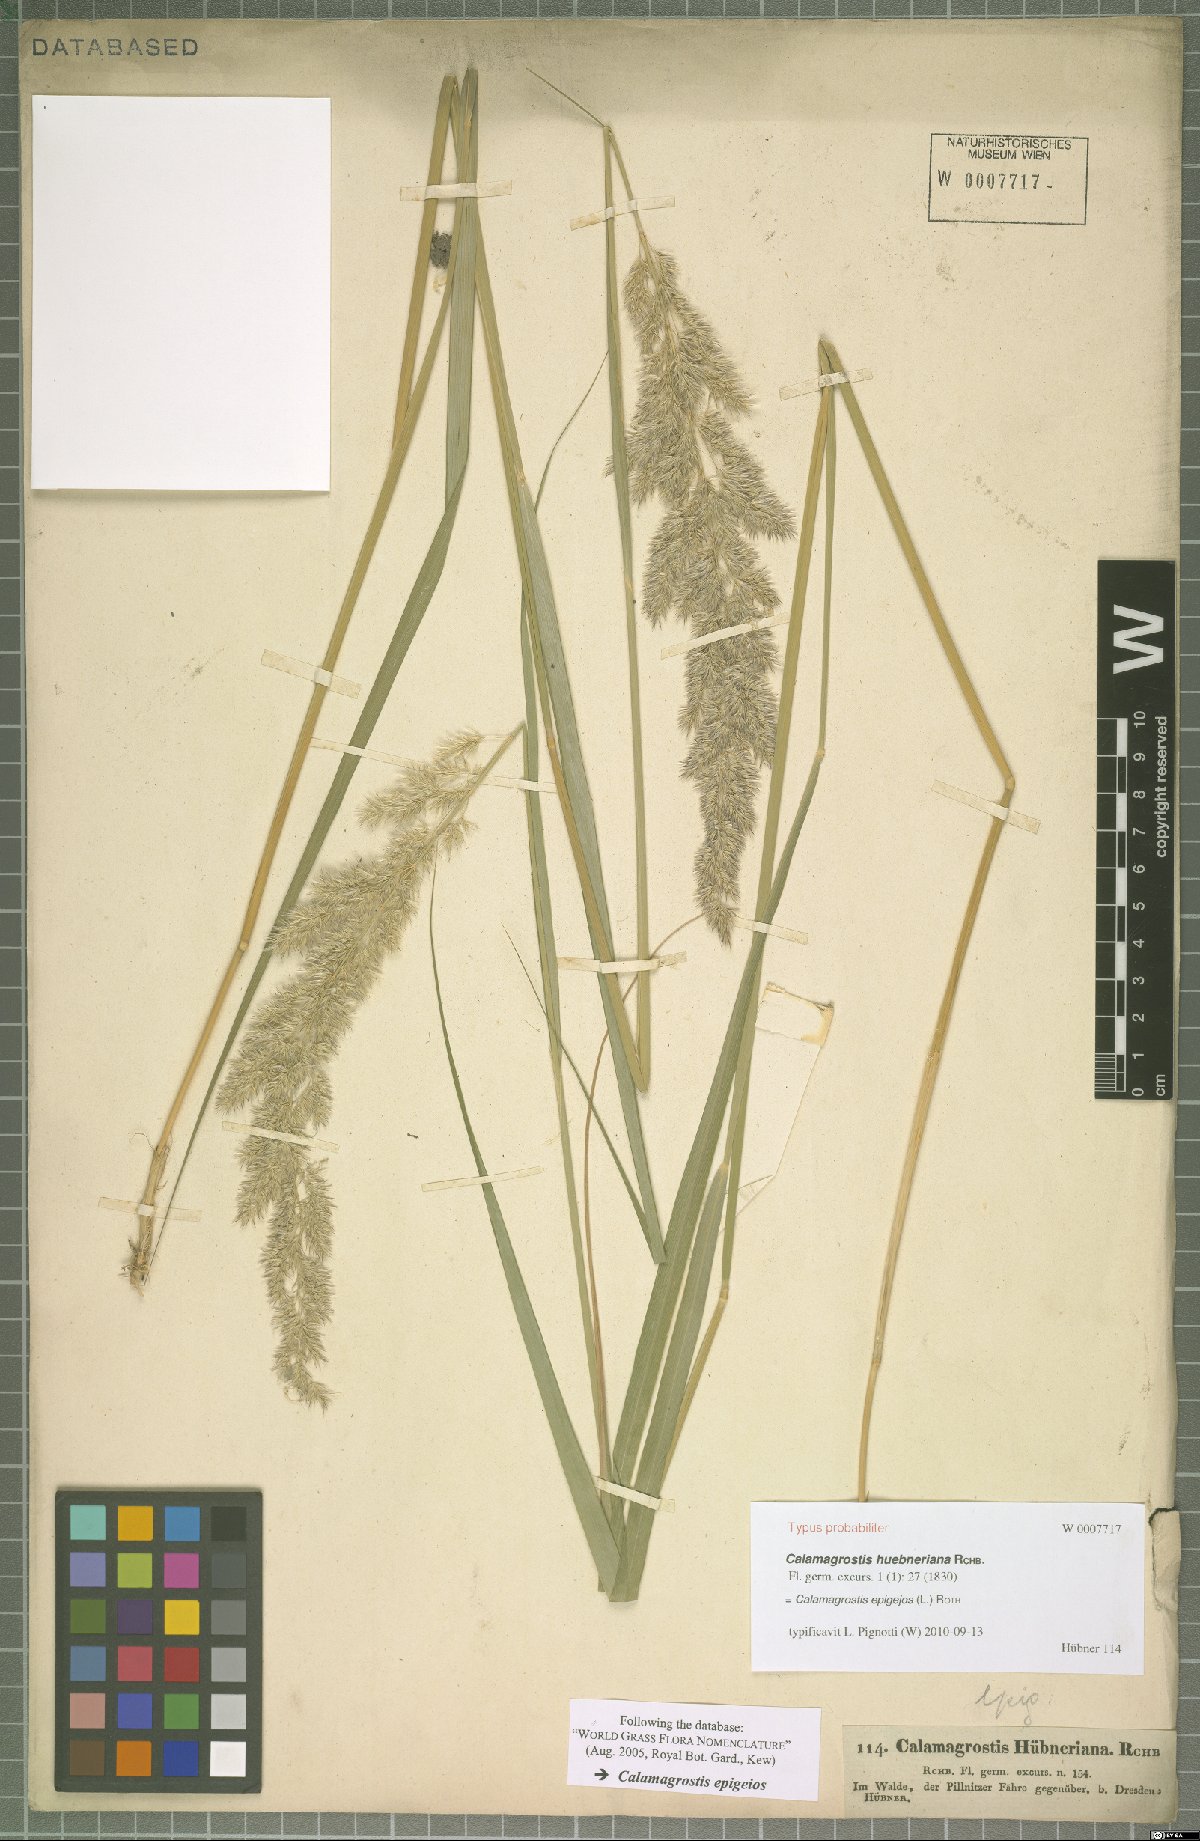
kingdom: Plantae
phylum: Tracheophyta
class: Liliopsida
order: Poales
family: Poaceae
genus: Calamagrostis
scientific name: Calamagrostis epigejos
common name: Wood small-reed
